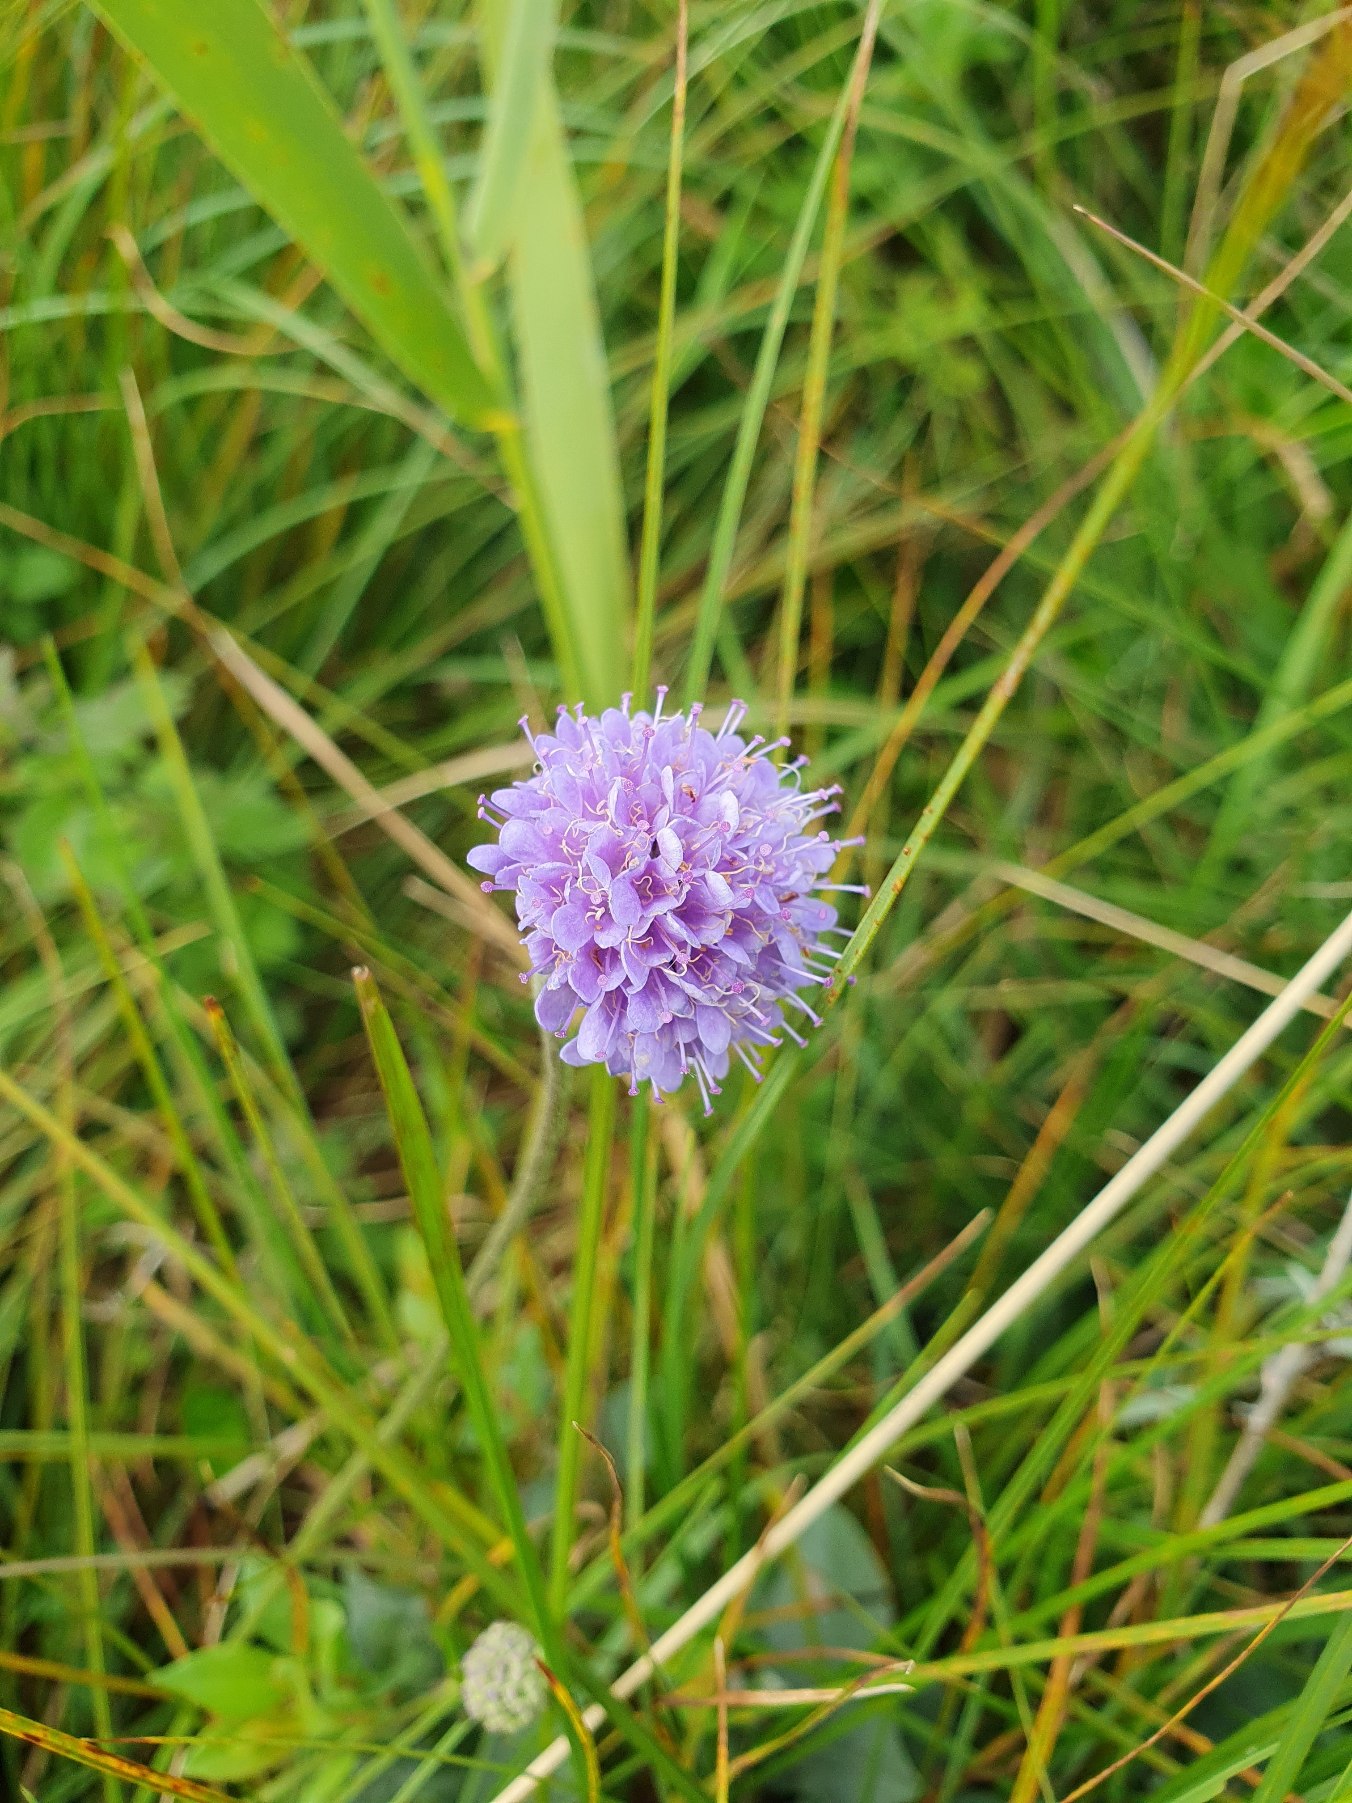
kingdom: Plantae
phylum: Tracheophyta
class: Magnoliopsida
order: Dipsacales
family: Caprifoliaceae
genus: Succisa
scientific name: Succisa pratensis
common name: Djævelsbid
